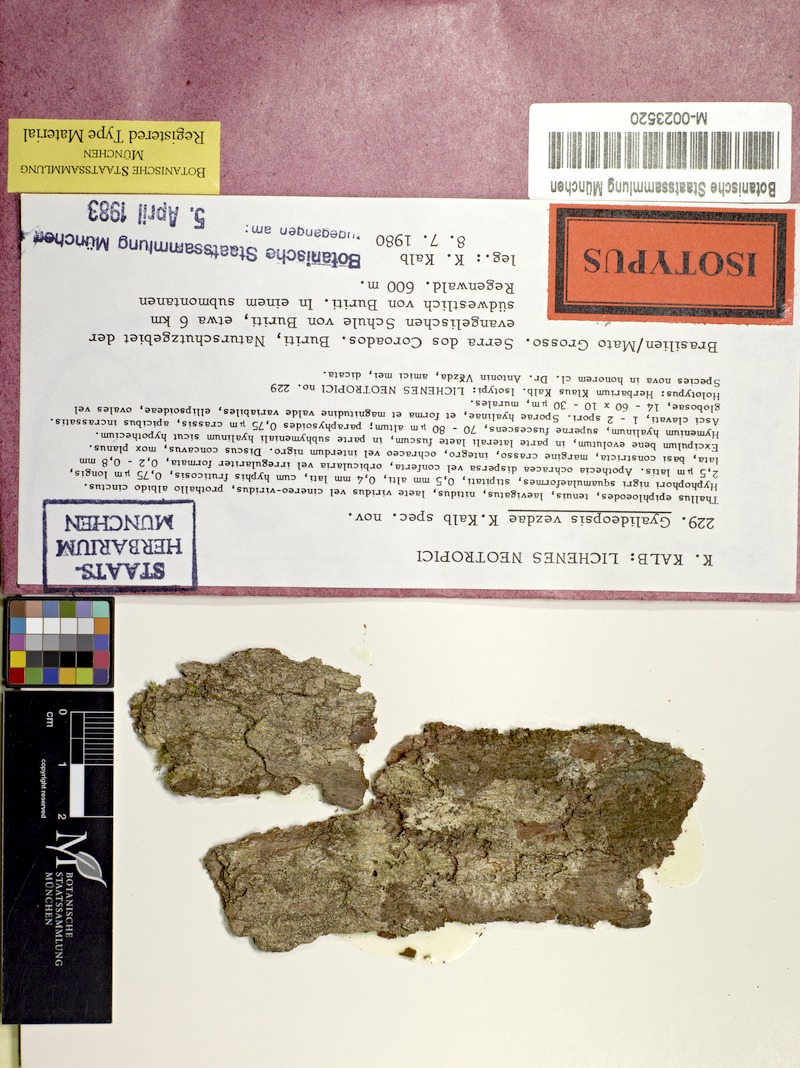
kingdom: Fungi
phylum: Ascomycota
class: Lecanoromycetes
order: Ostropales
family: Gomphillaceae
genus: Gyalideopsis
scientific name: Gyalideopsis
